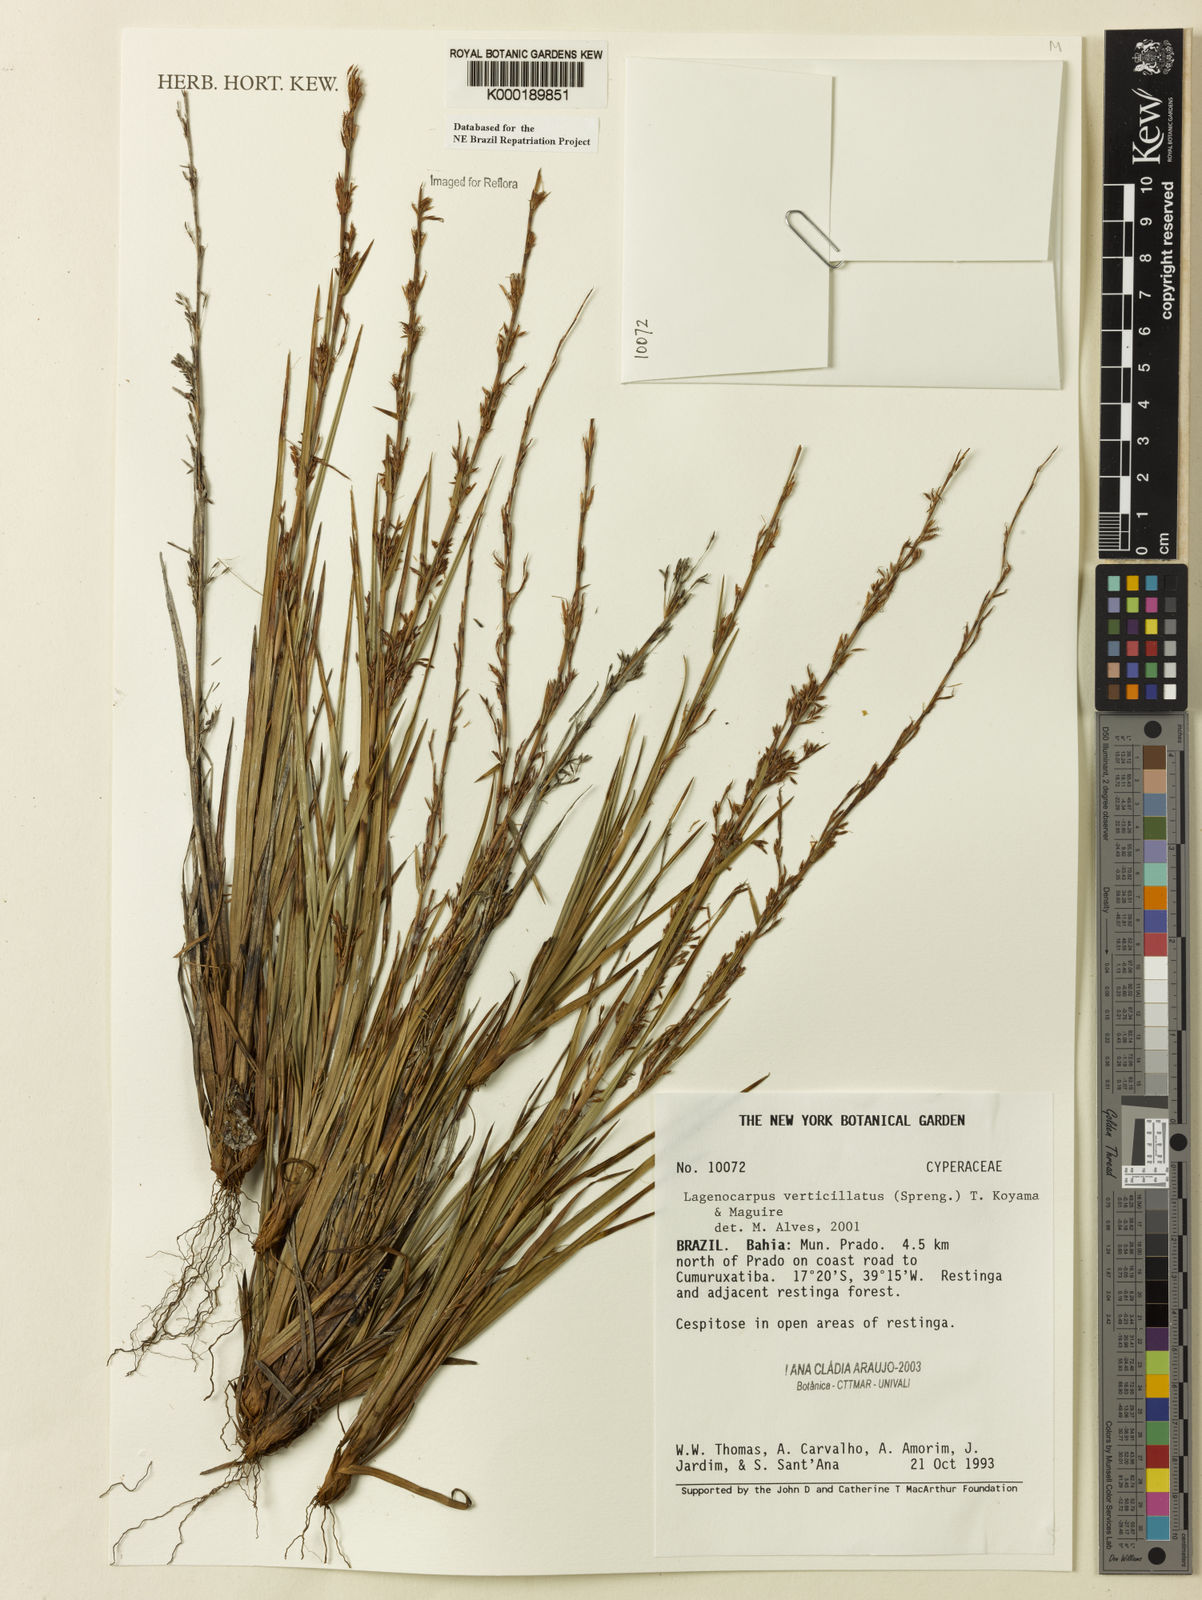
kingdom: Plantae
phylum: Tracheophyta
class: Liliopsida
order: Poales
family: Cyperaceae
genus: Cryptangium
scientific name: Cryptangium verticillatum
